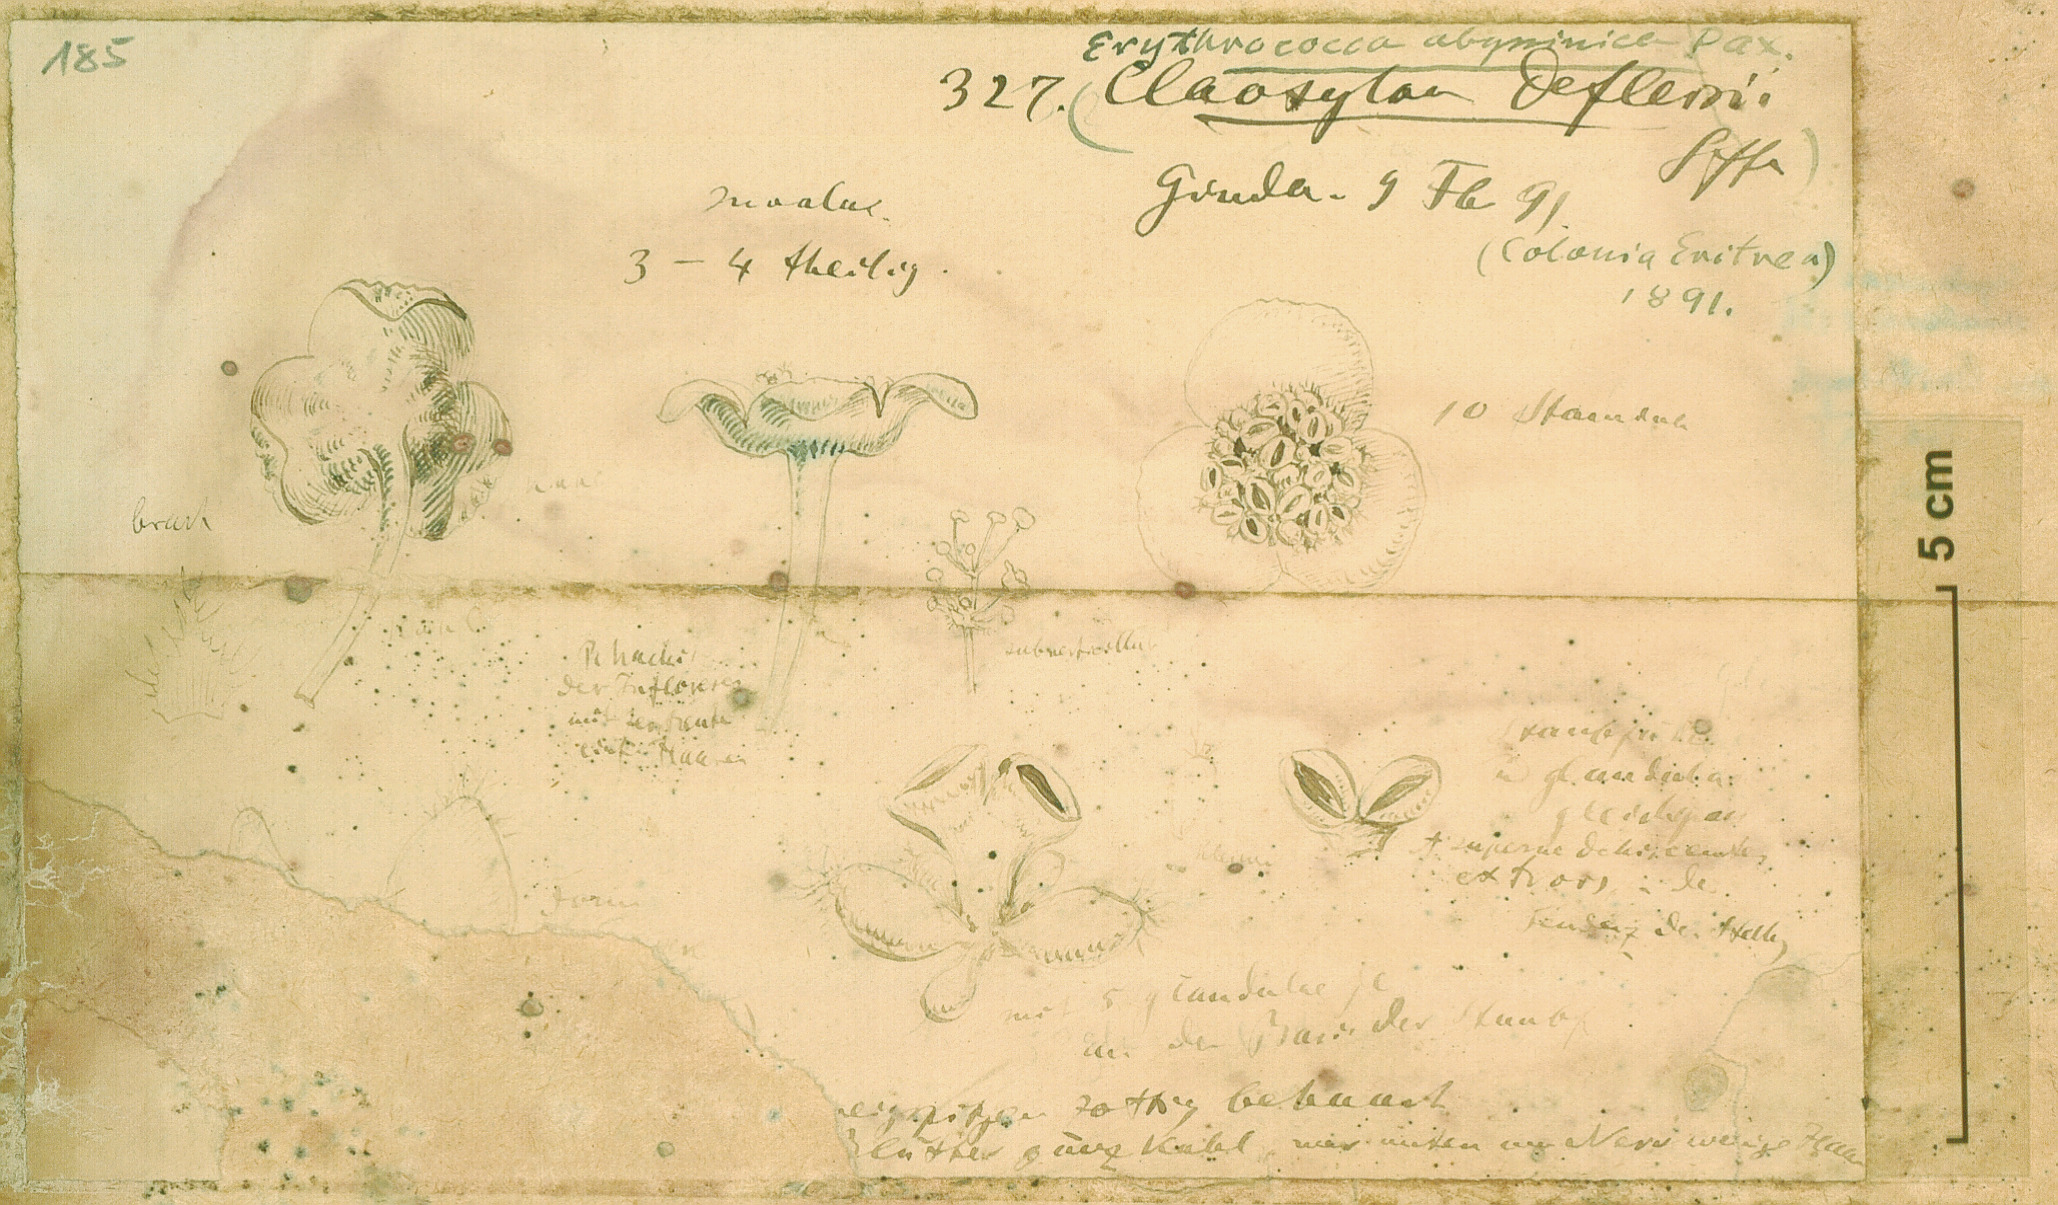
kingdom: Plantae
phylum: Tracheophyta
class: Magnoliopsida
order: Malpighiales
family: Euphorbiaceae
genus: Erythrococca
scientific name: Erythrococca abyssinica
